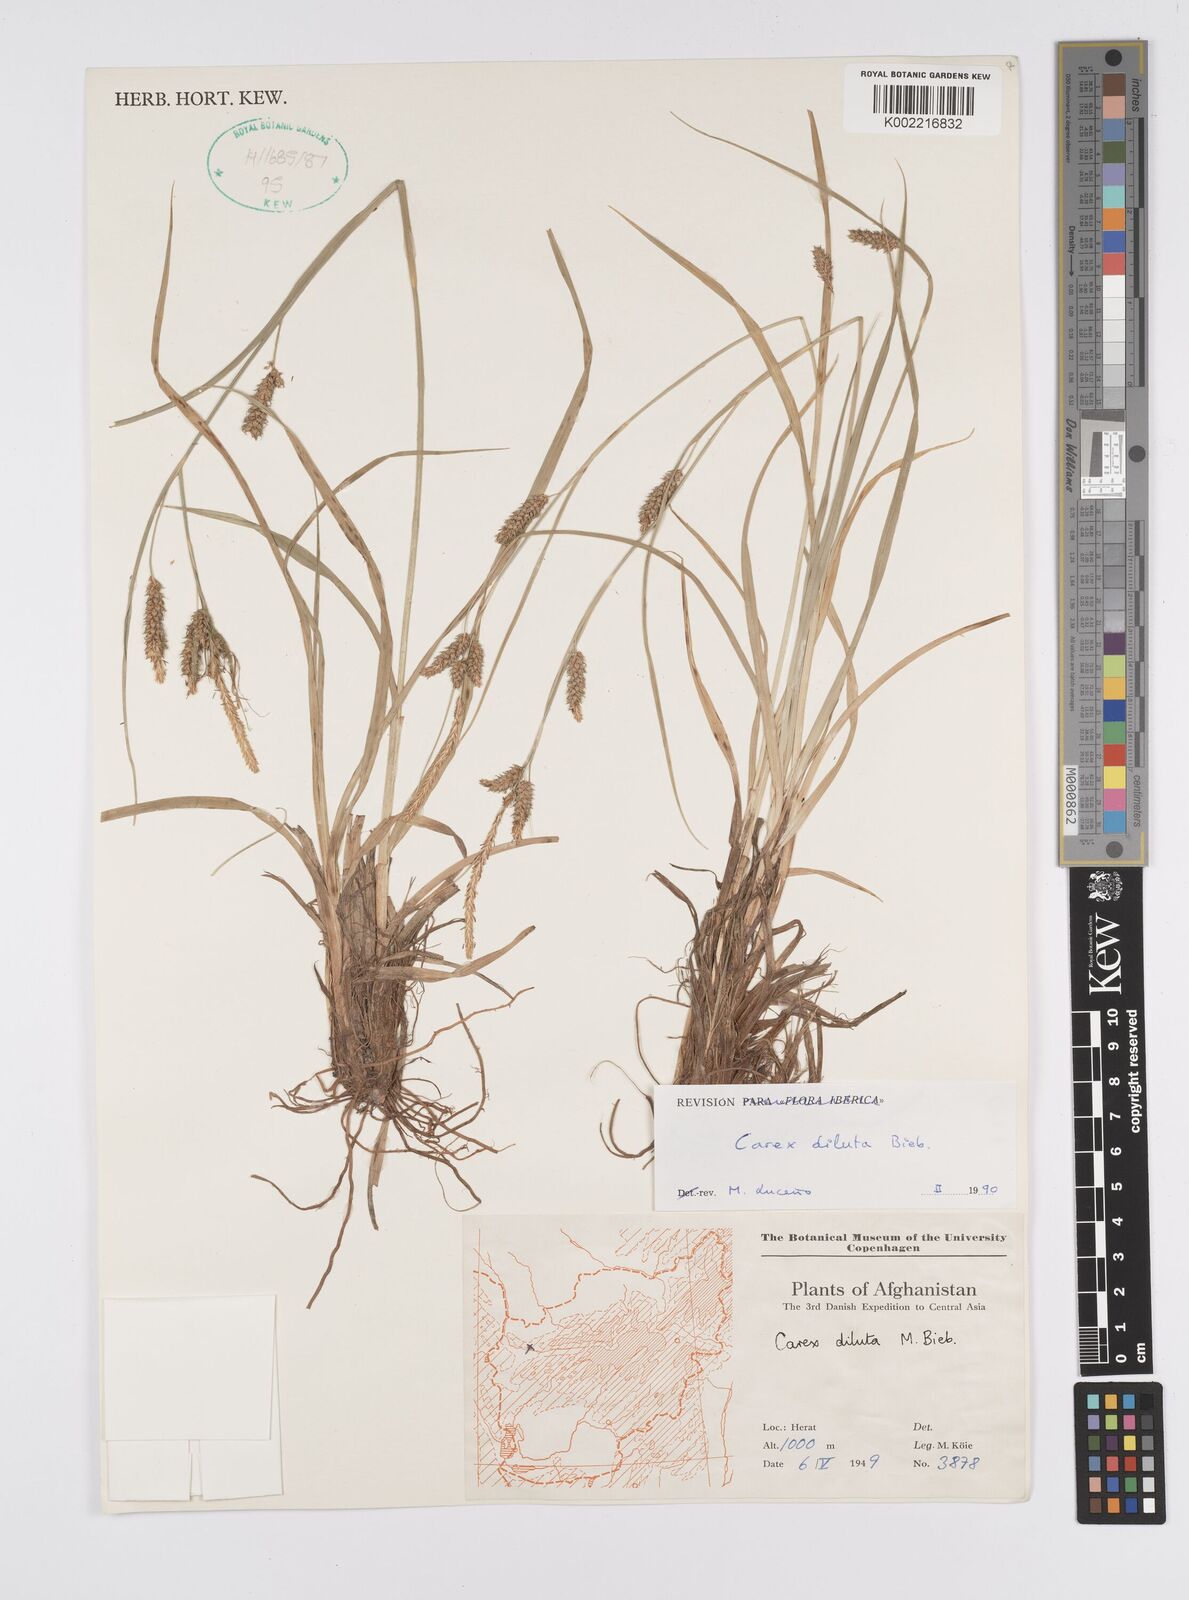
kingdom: Plantae
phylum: Tracheophyta
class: Liliopsida
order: Poales
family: Cyperaceae
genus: Carex
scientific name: Carex diluta
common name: Sedge
